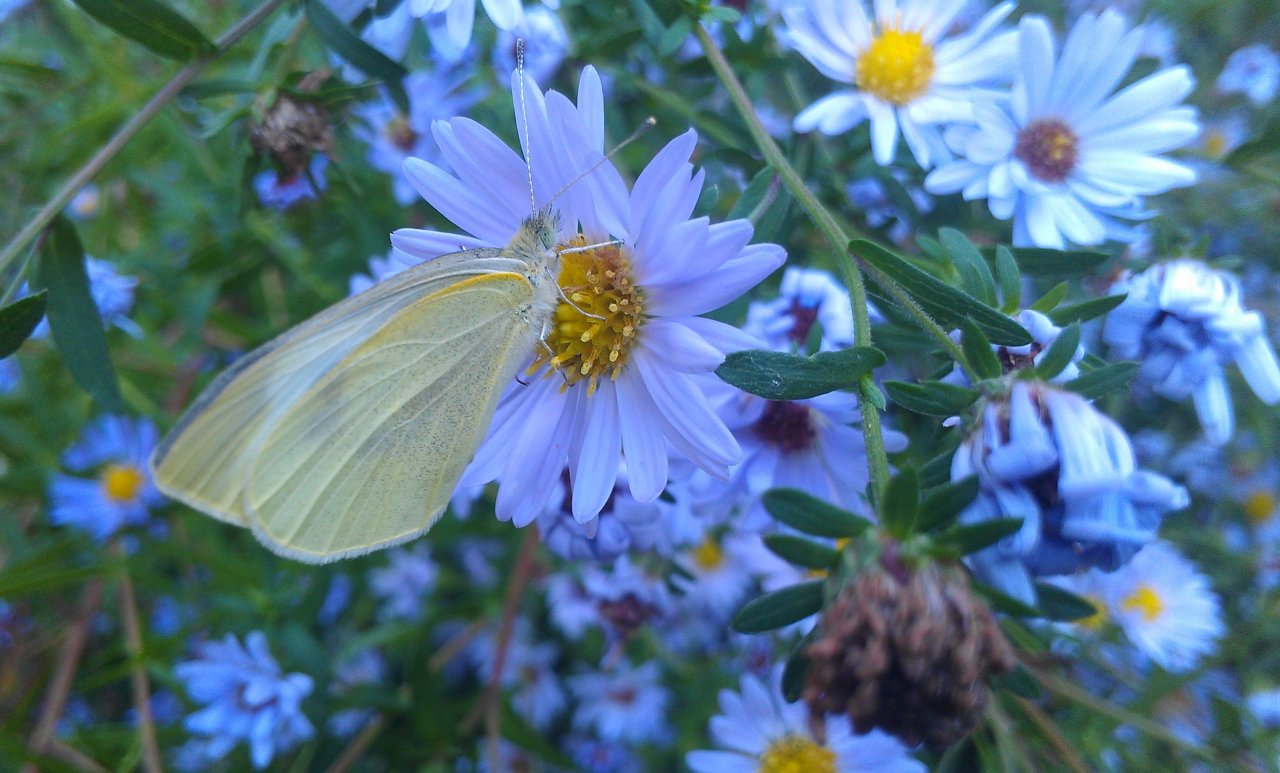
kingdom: Animalia
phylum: Arthropoda
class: Insecta
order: Lepidoptera
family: Pieridae
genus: Pieris
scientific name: Pieris rapae
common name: Cabbage White
